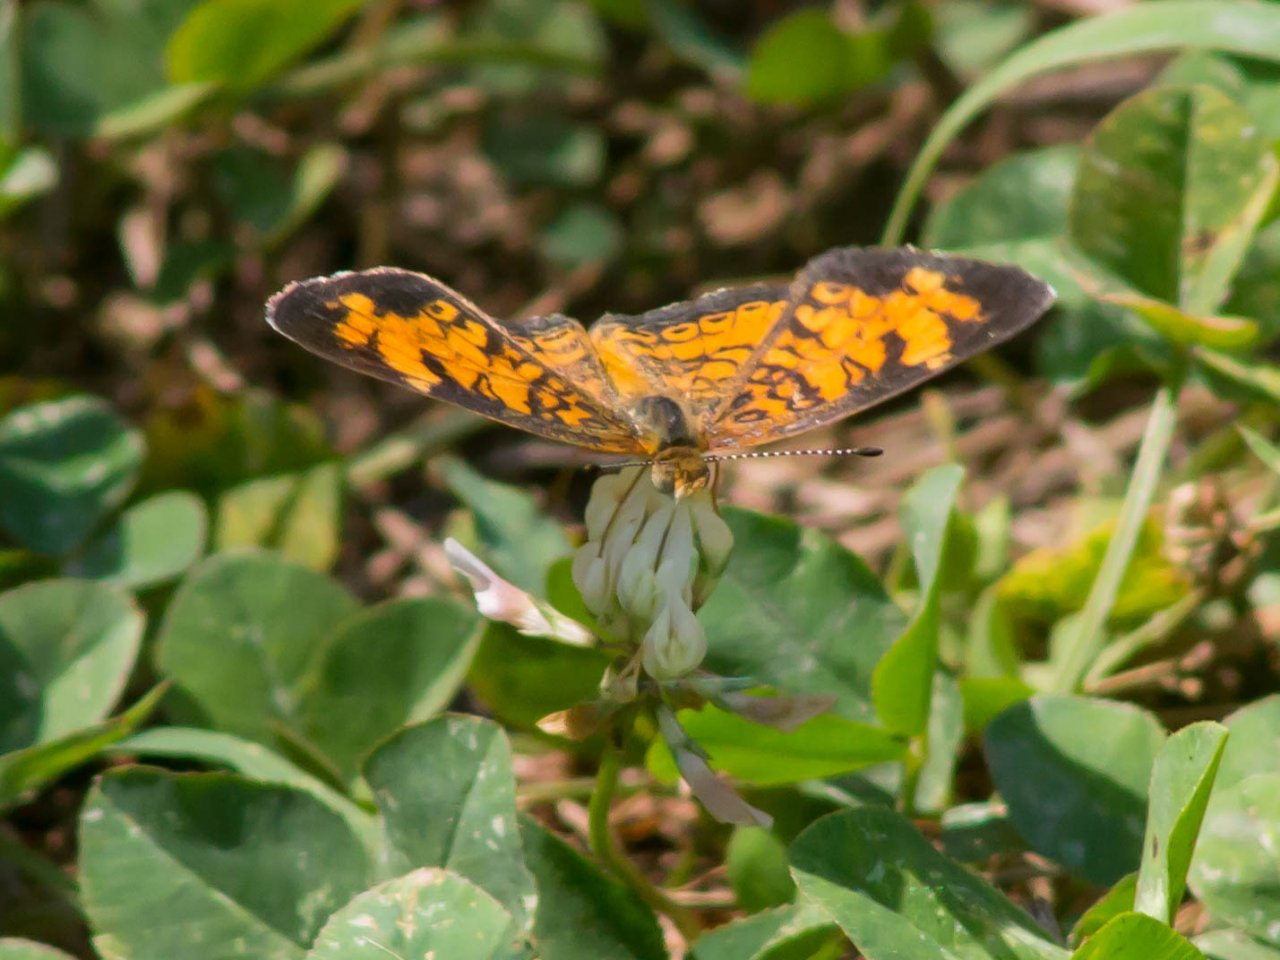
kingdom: Animalia
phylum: Arthropoda
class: Insecta
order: Lepidoptera
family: Nymphalidae
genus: Phyciodes
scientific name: Phyciodes tharos
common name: Pearl Crescent
